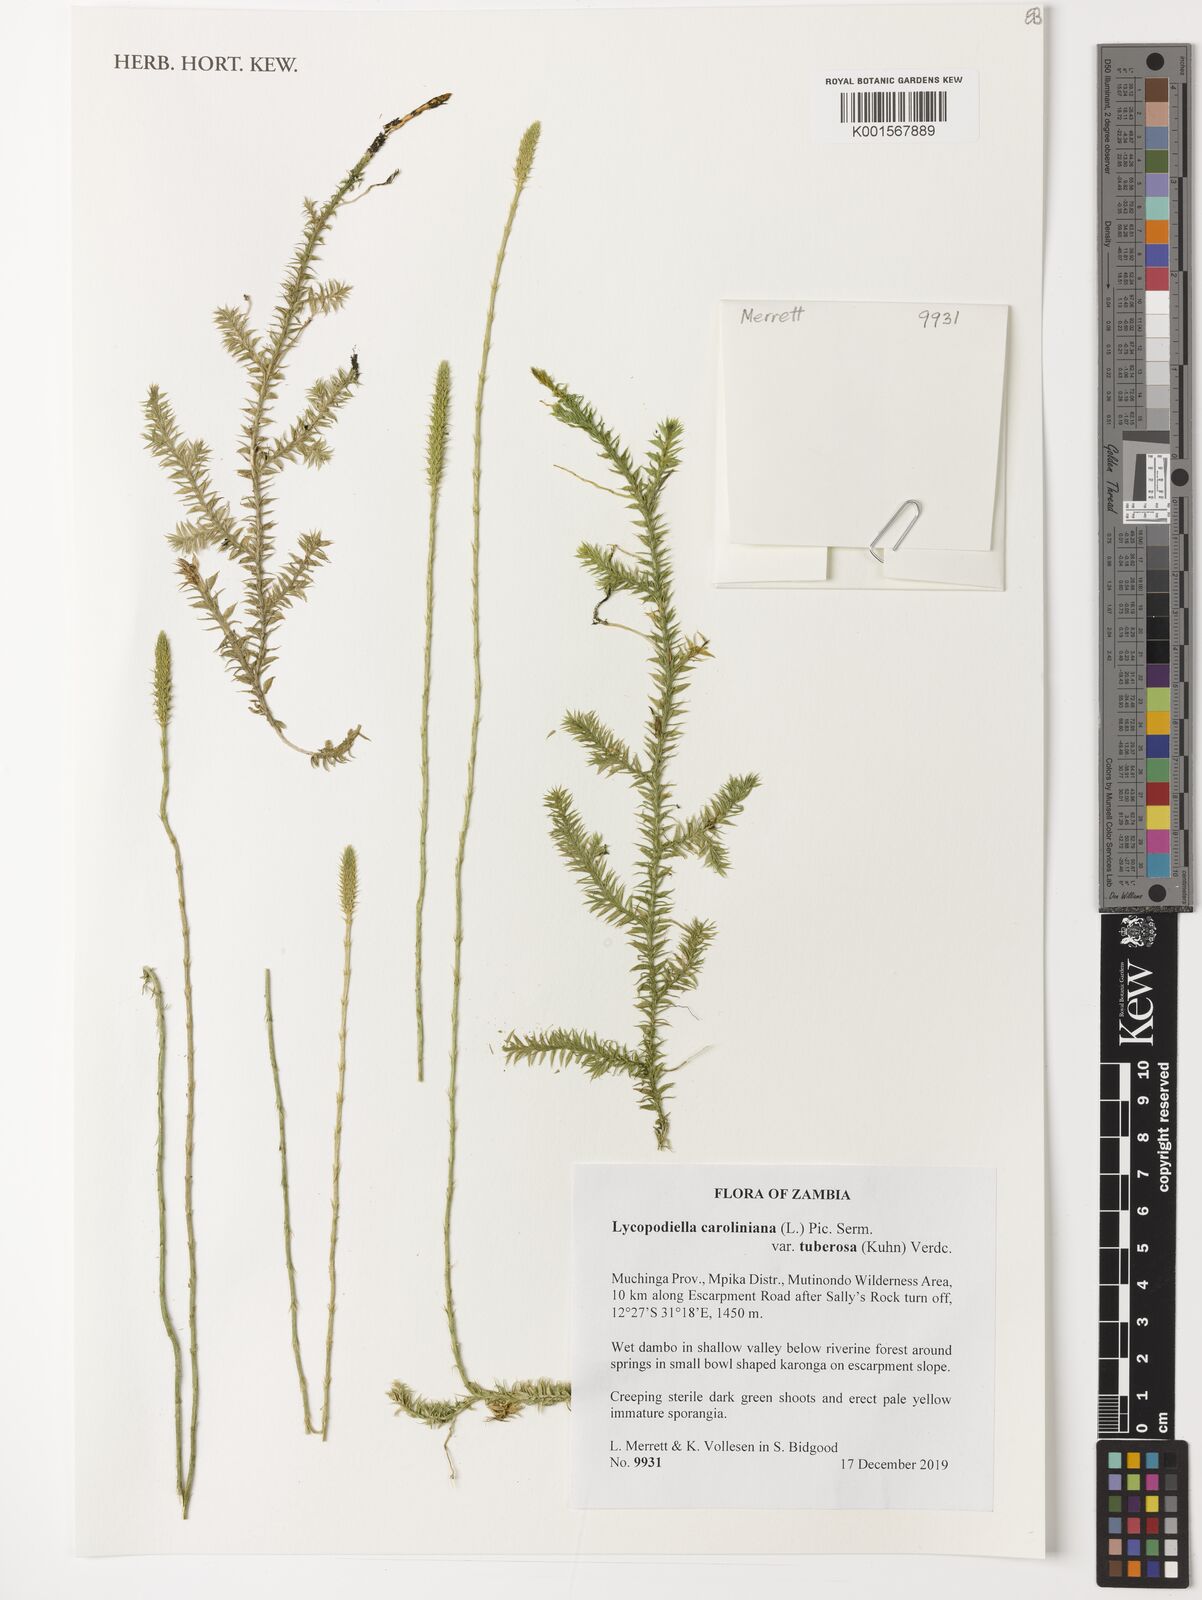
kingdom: Plantae
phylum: Tracheophyta
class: Lycopodiopsida
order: Lycopodiales
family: Lycopodiaceae
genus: Pseudolycopodiella
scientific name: Pseudolycopodiella tuberosa
